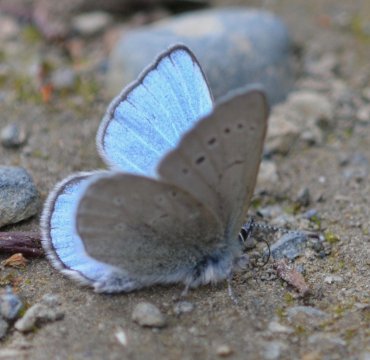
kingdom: Animalia
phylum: Arthropoda
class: Insecta
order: Lepidoptera
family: Lycaenidae
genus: Glaucopsyche
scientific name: Glaucopsyche lygdamus
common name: Silvery Blue
